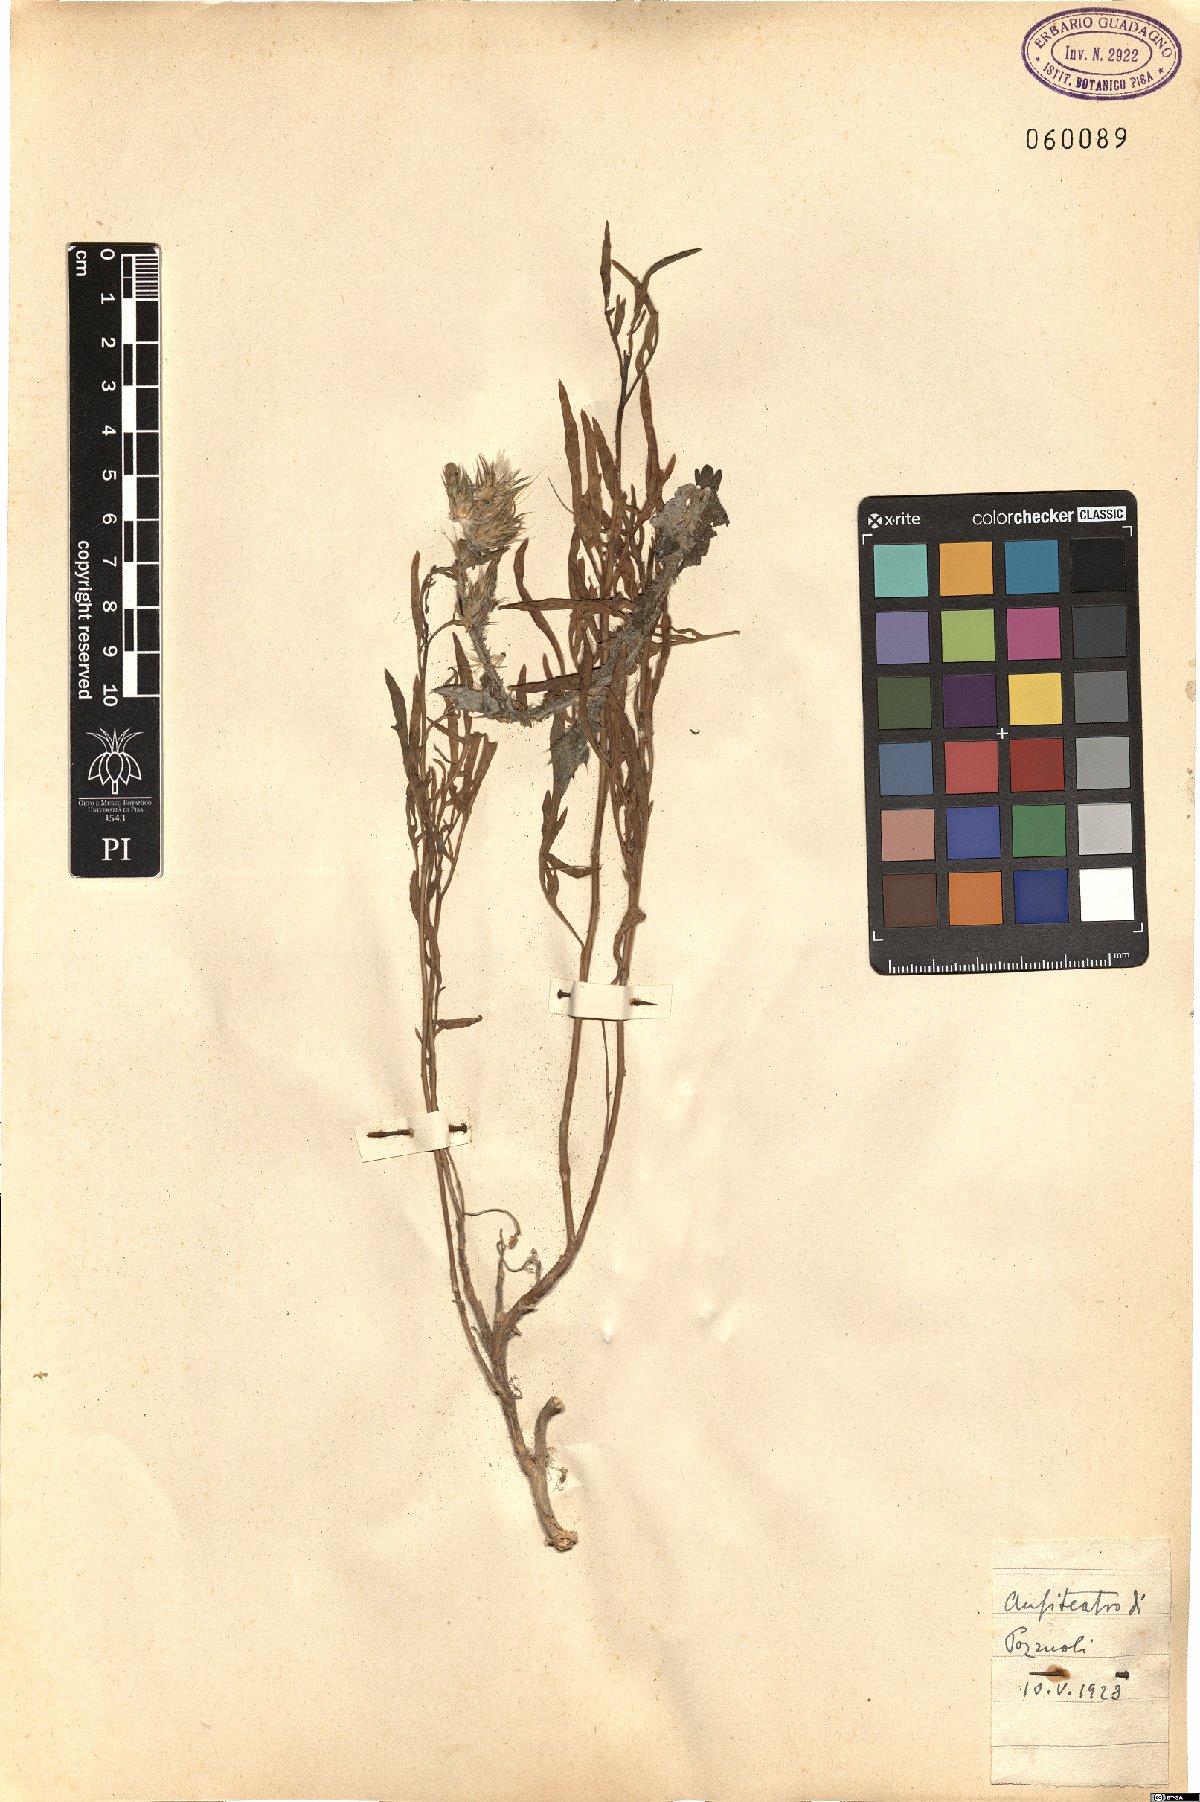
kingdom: Plantae
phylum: Tracheophyta
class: Magnoliopsida
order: Caryophyllales
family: Polygonaceae
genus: Rumex
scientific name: Rumex
